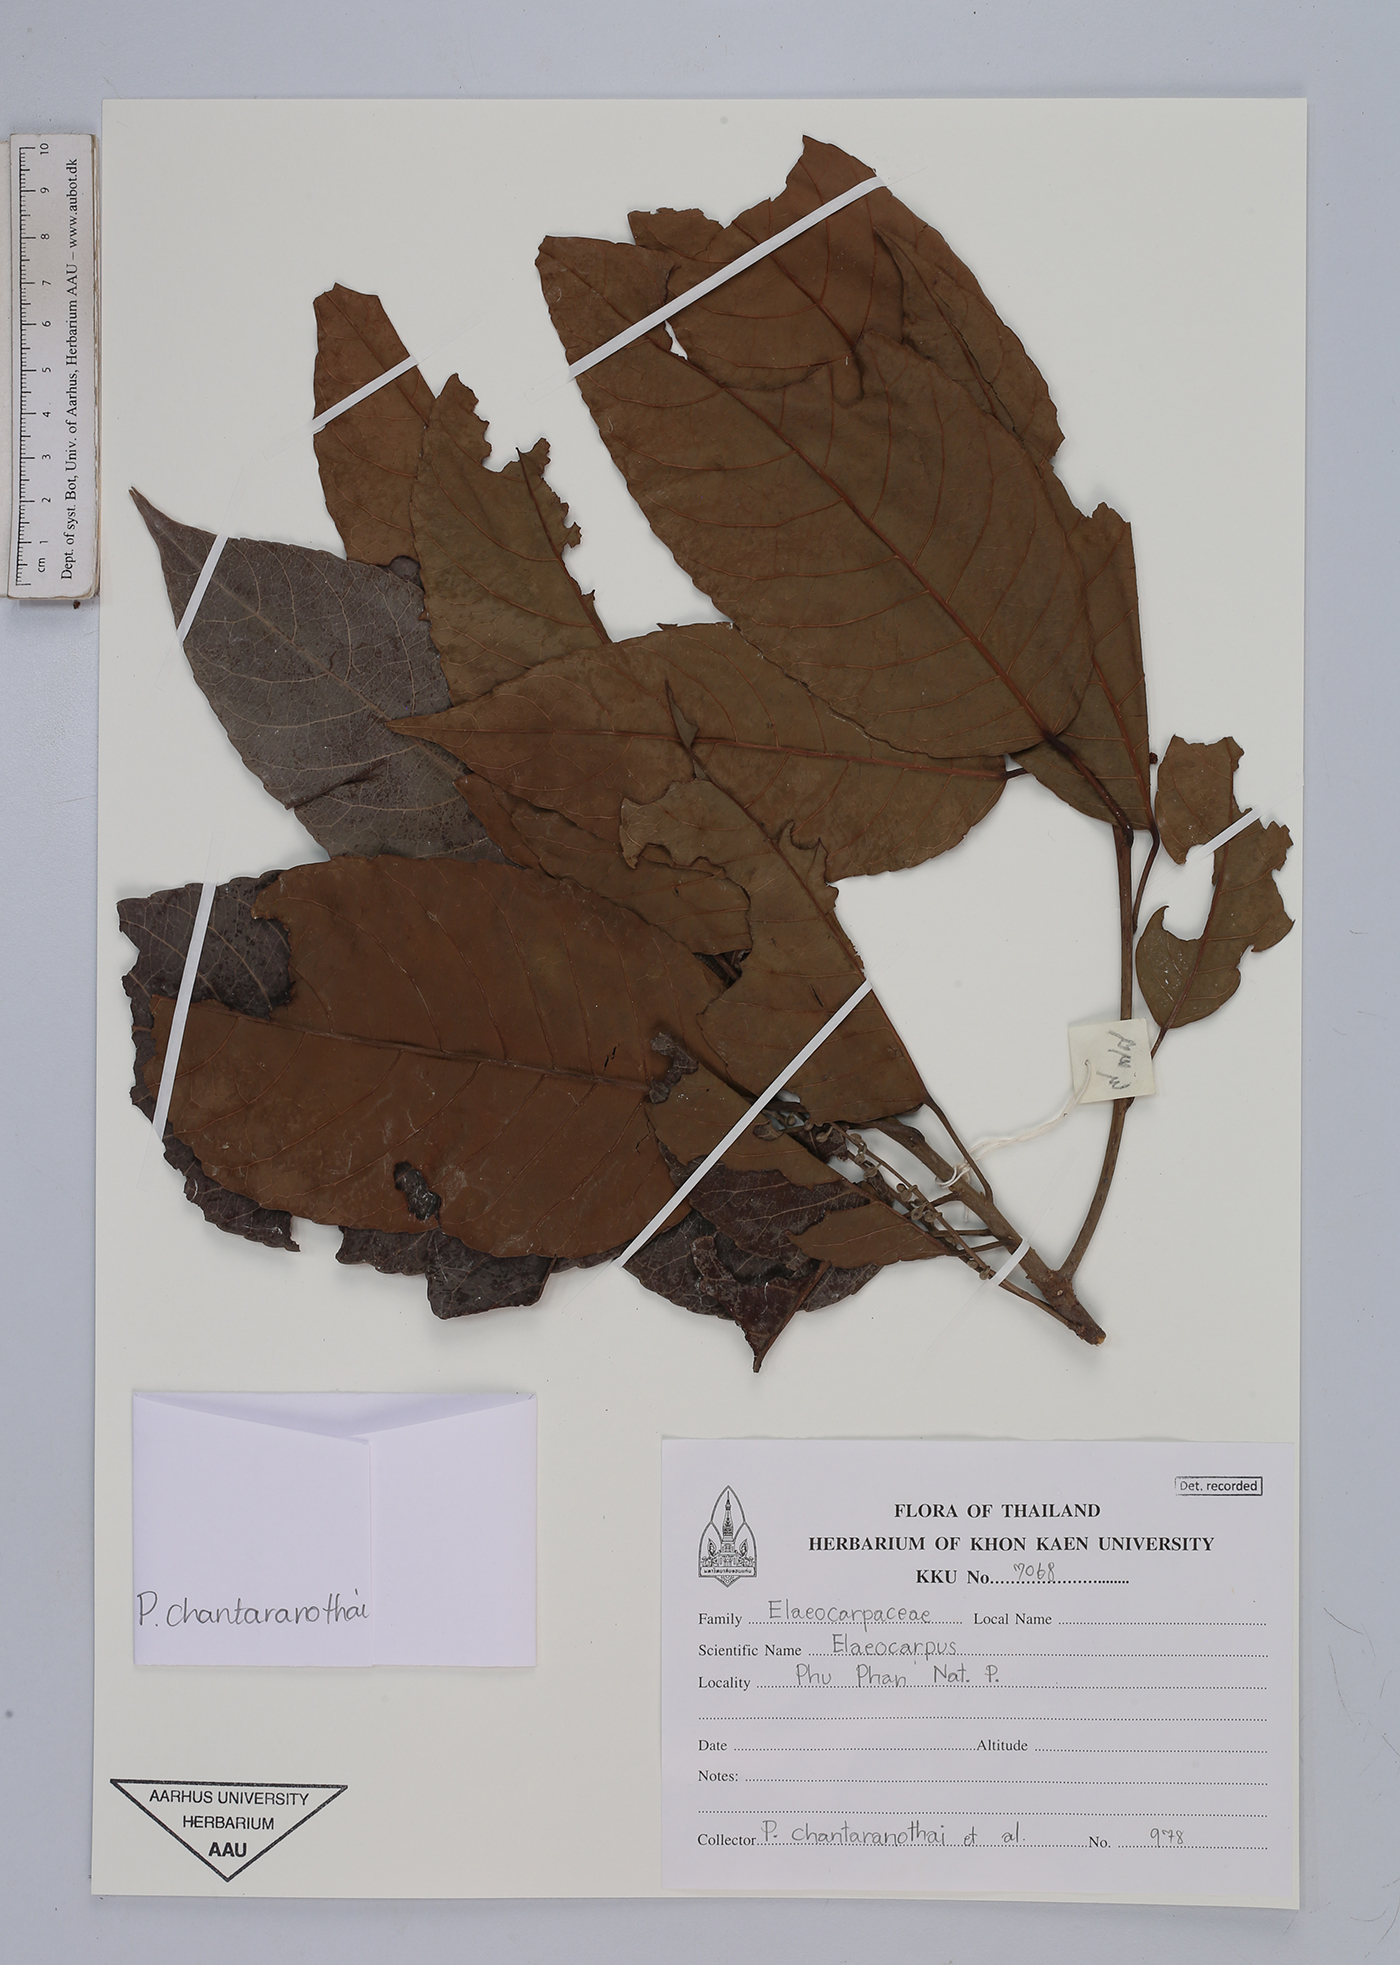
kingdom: Plantae
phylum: Tracheophyta
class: Magnoliopsida
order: Oxalidales
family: Elaeocarpaceae
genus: Elaeocarpus
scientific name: Elaeocarpus
